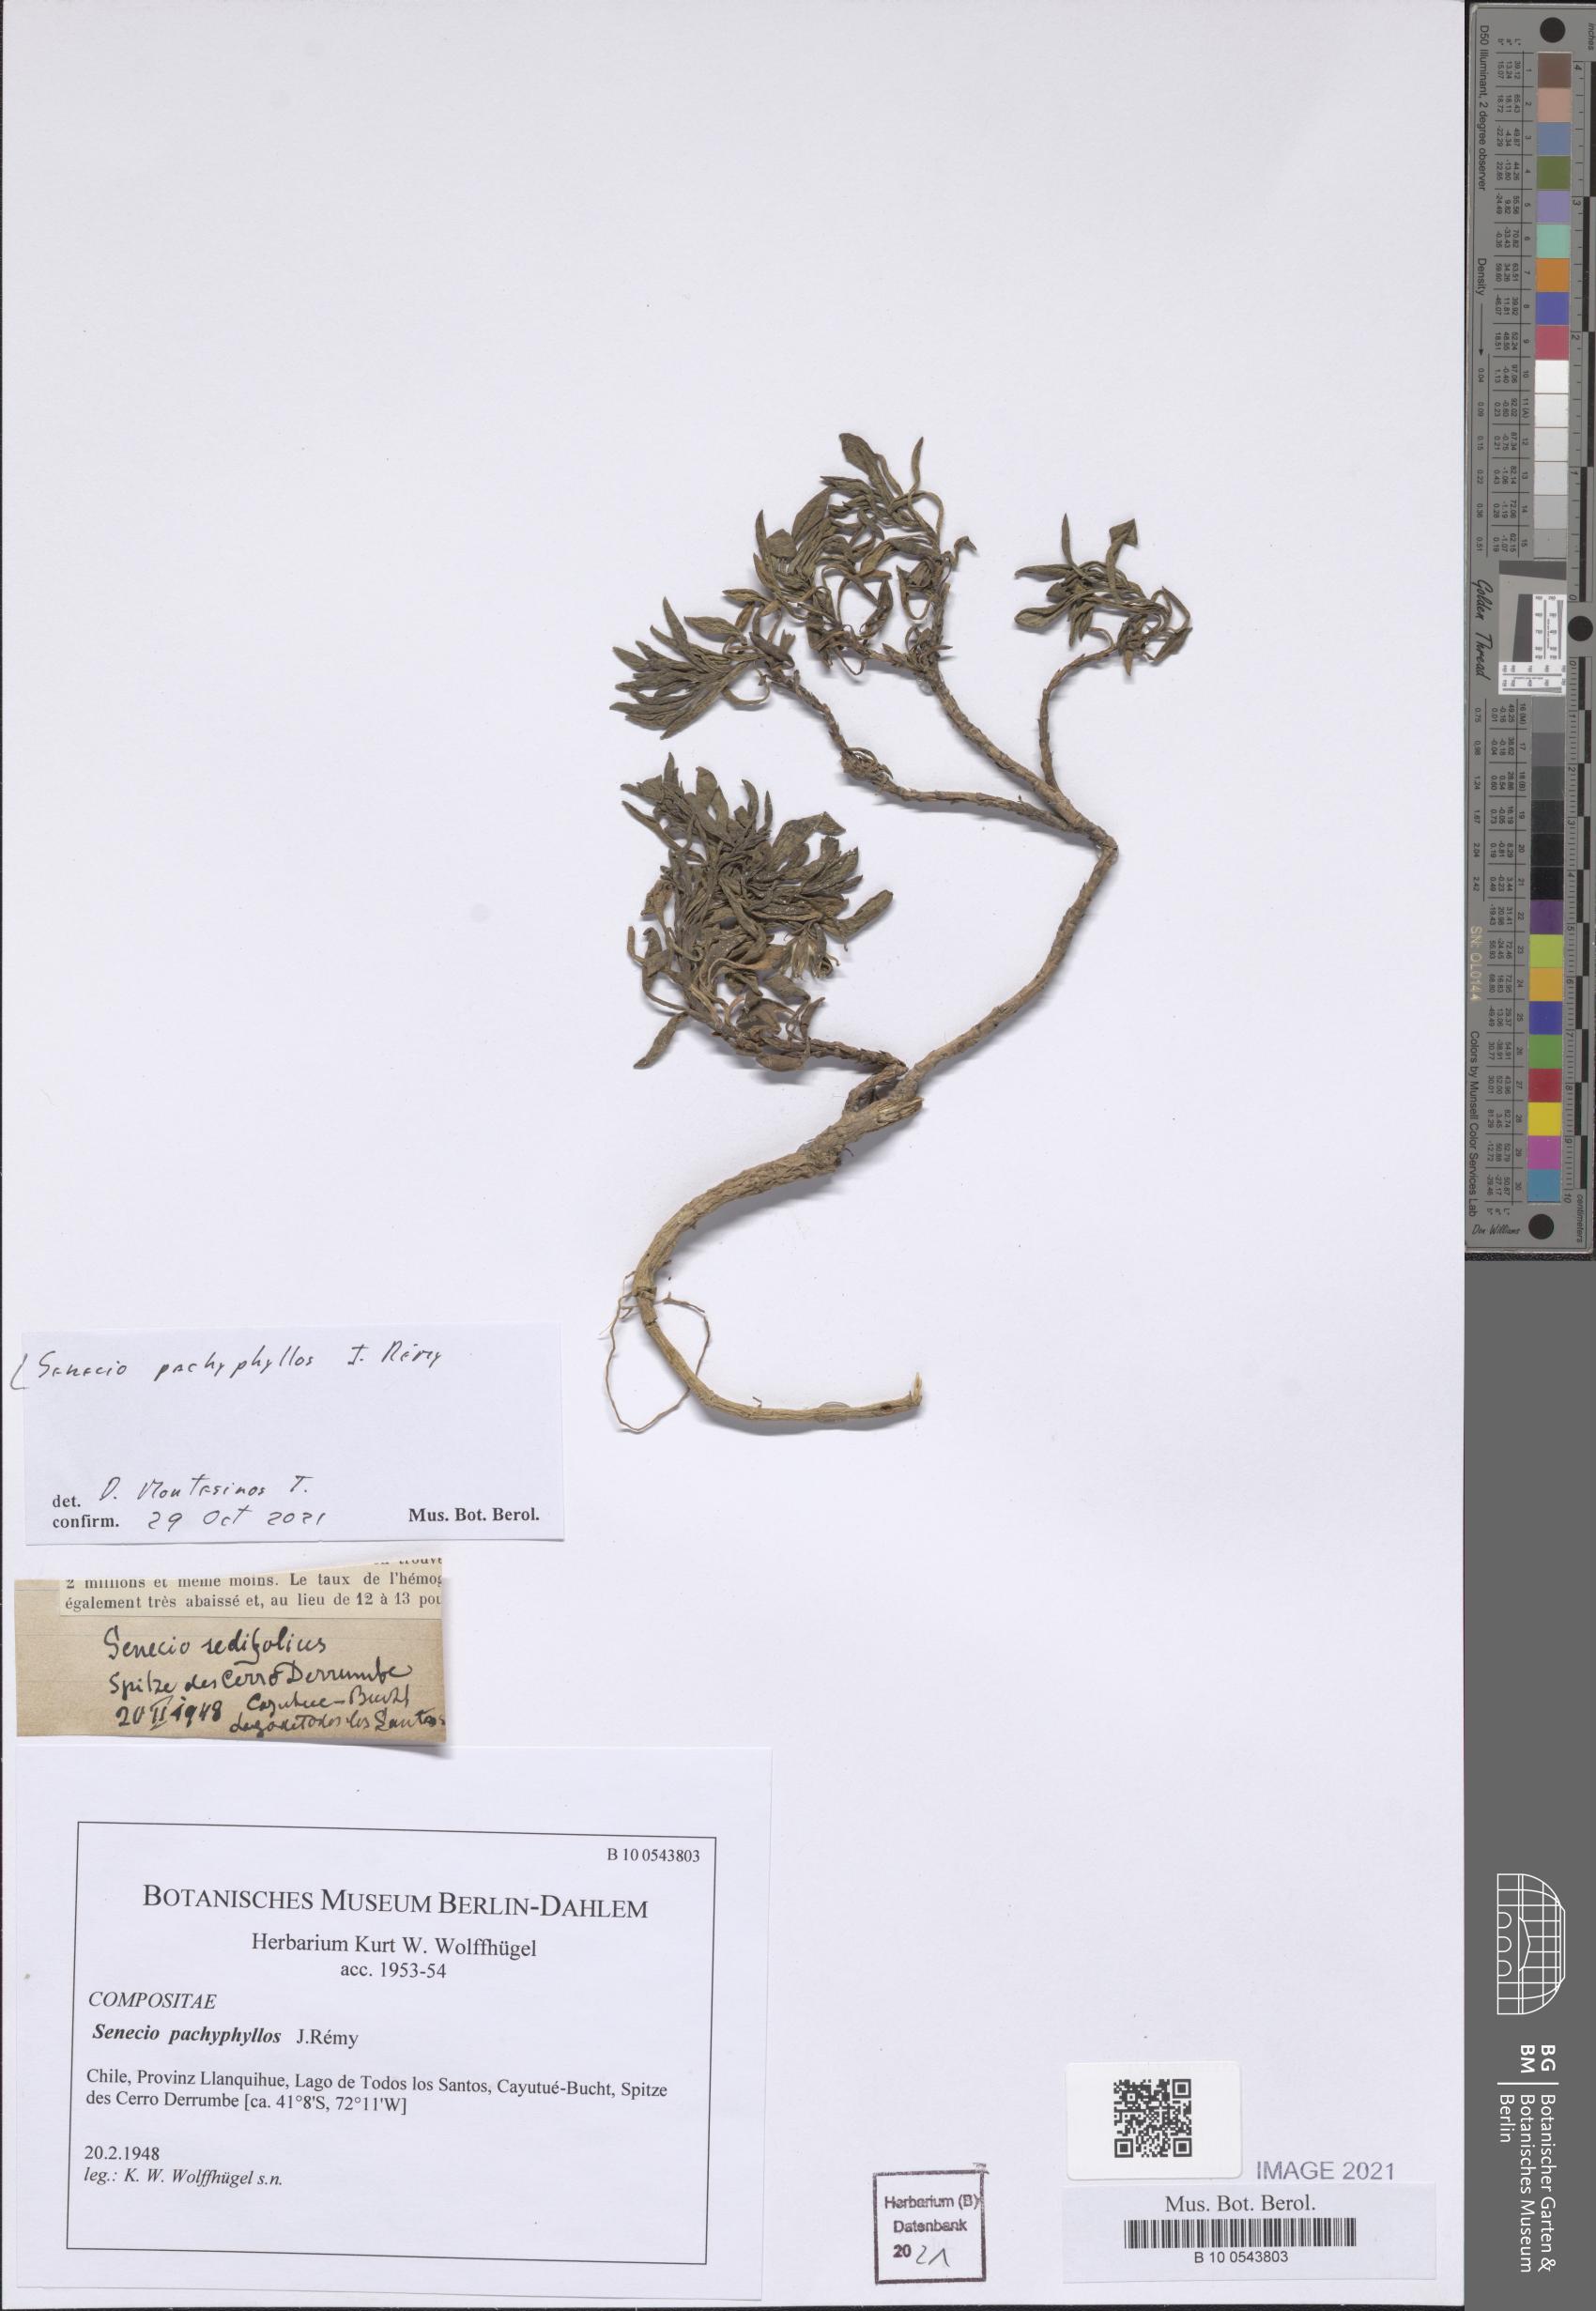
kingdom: Plantae
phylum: Tracheophyta
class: Magnoliopsida
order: Asterales
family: Asteraceae
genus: Senecio
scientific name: Senecio pachyphyllos
